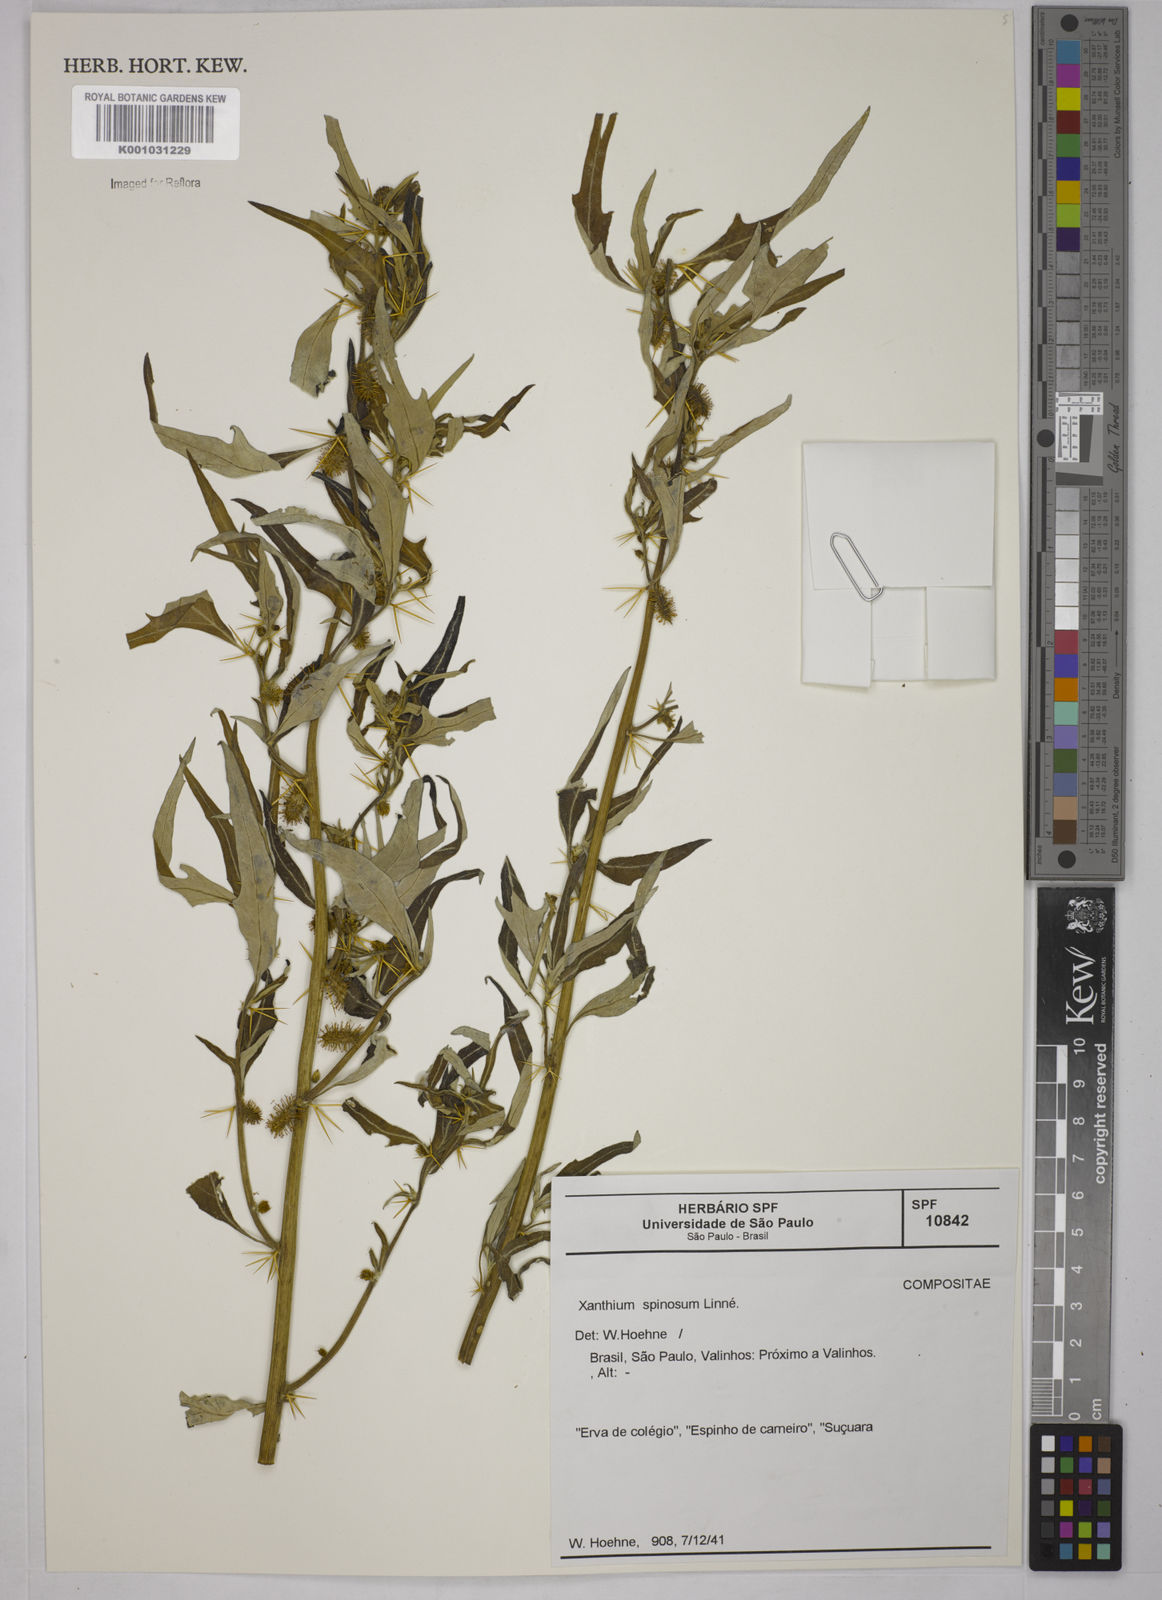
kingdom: Plantae
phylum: Tracheophyta
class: Magnoliopsida
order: Asterales
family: Asteraceae
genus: Xanthium
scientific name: Xanthium spinosum
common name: Spiny cocklebur
